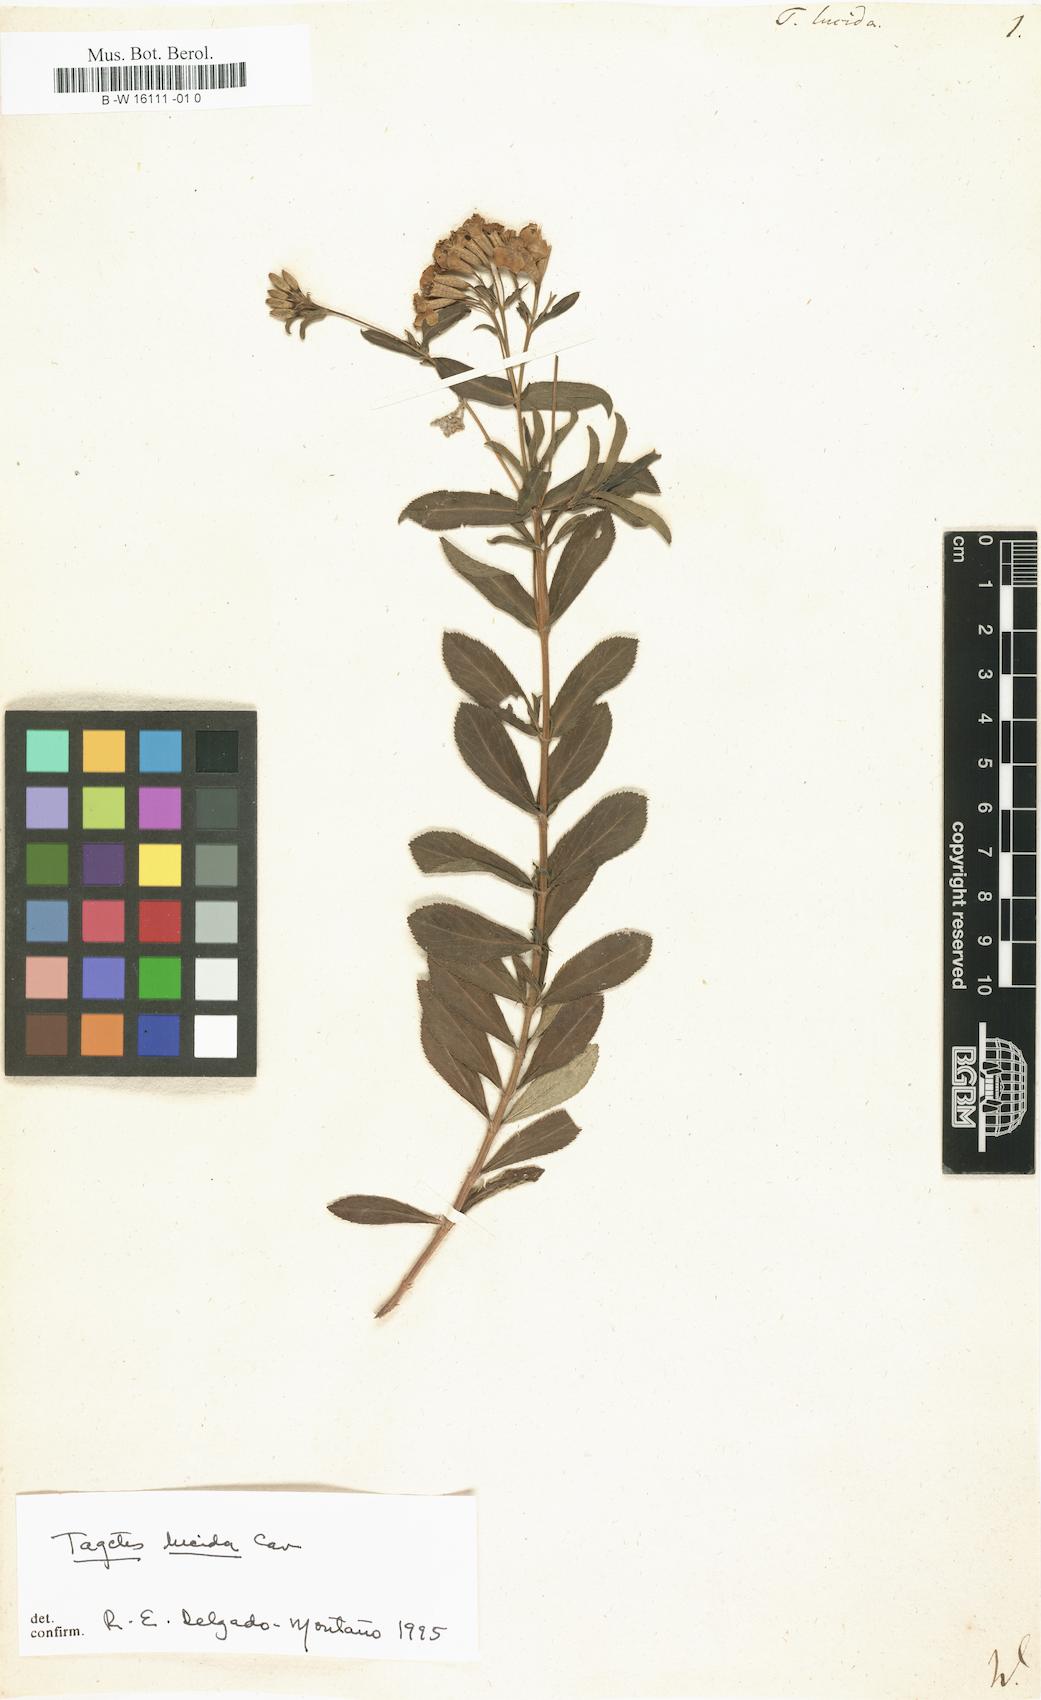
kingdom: Plantae
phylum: Tracheophyta
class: Magnoliopsida
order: Asterales
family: Asteraceae
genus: Tagetes
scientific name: Tagetes lucida
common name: Sweetscented marigold
